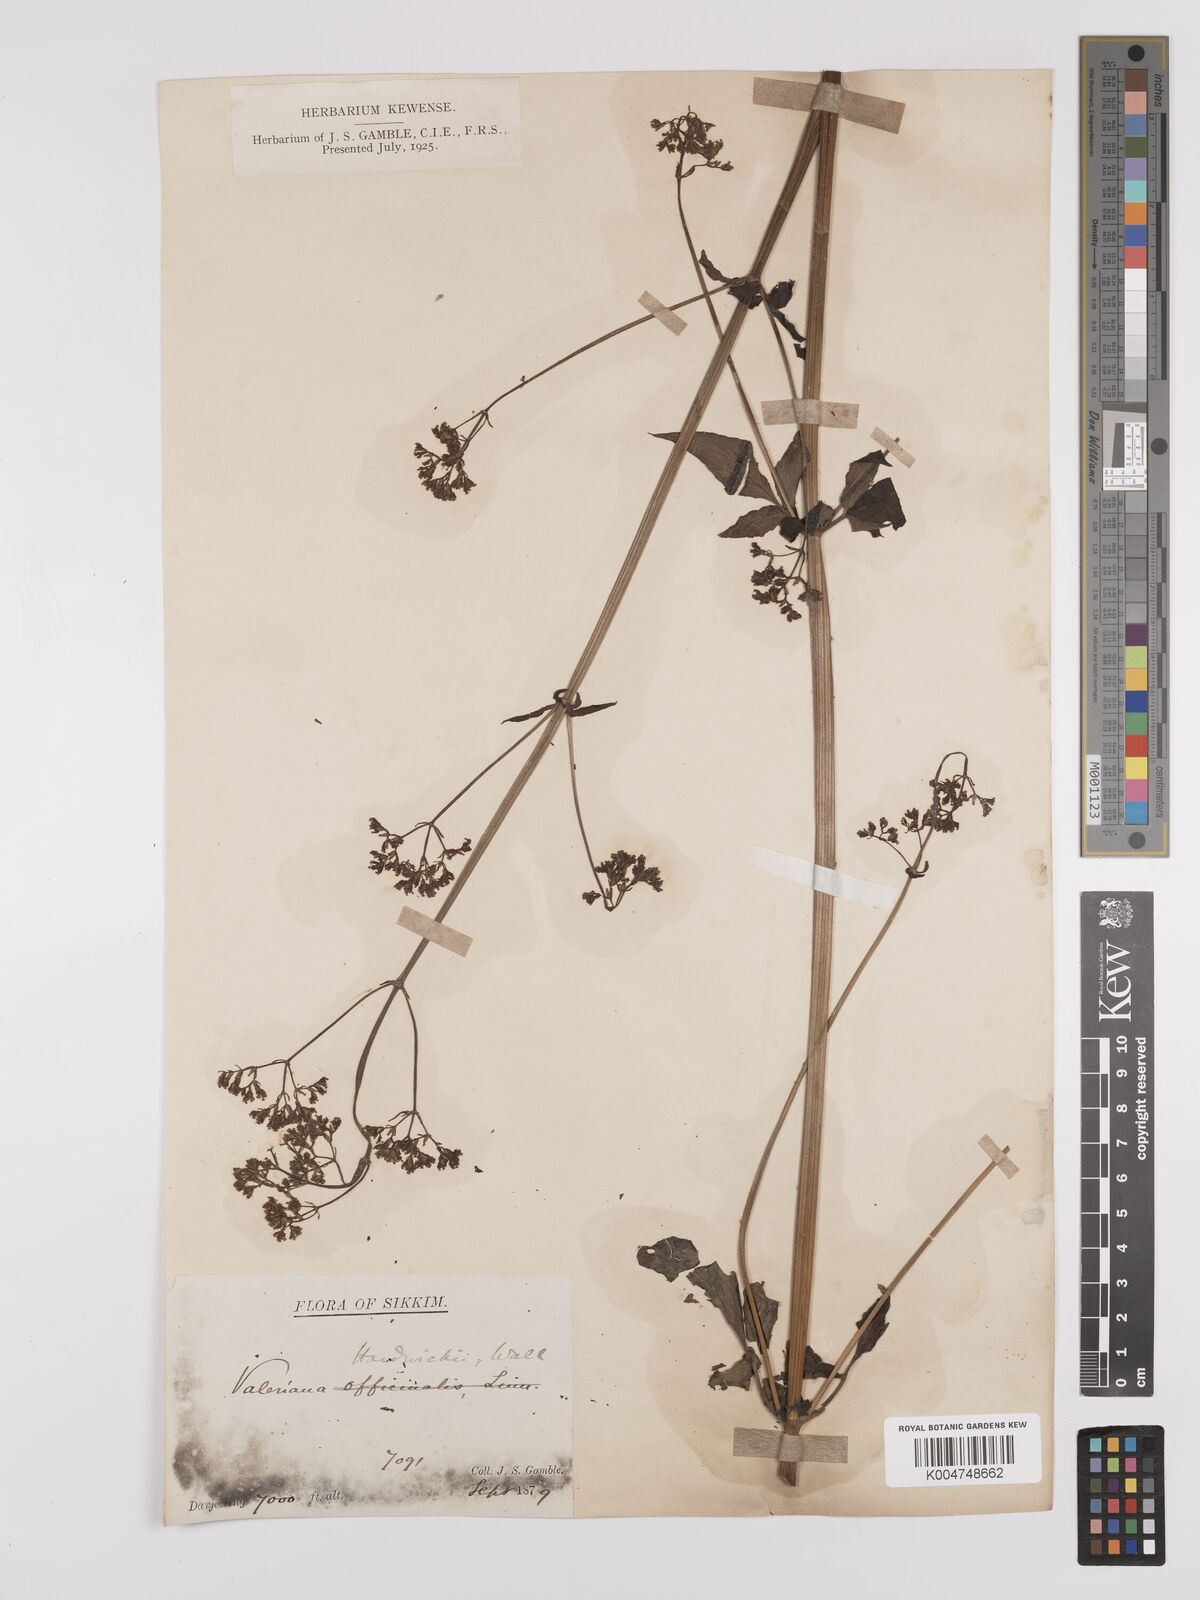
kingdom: Plantae
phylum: Tracheophyta
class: Magnoliopsida
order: Dipsacales
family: Caprifoliaceae
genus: Valeriana
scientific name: Valeriana hardwickei
